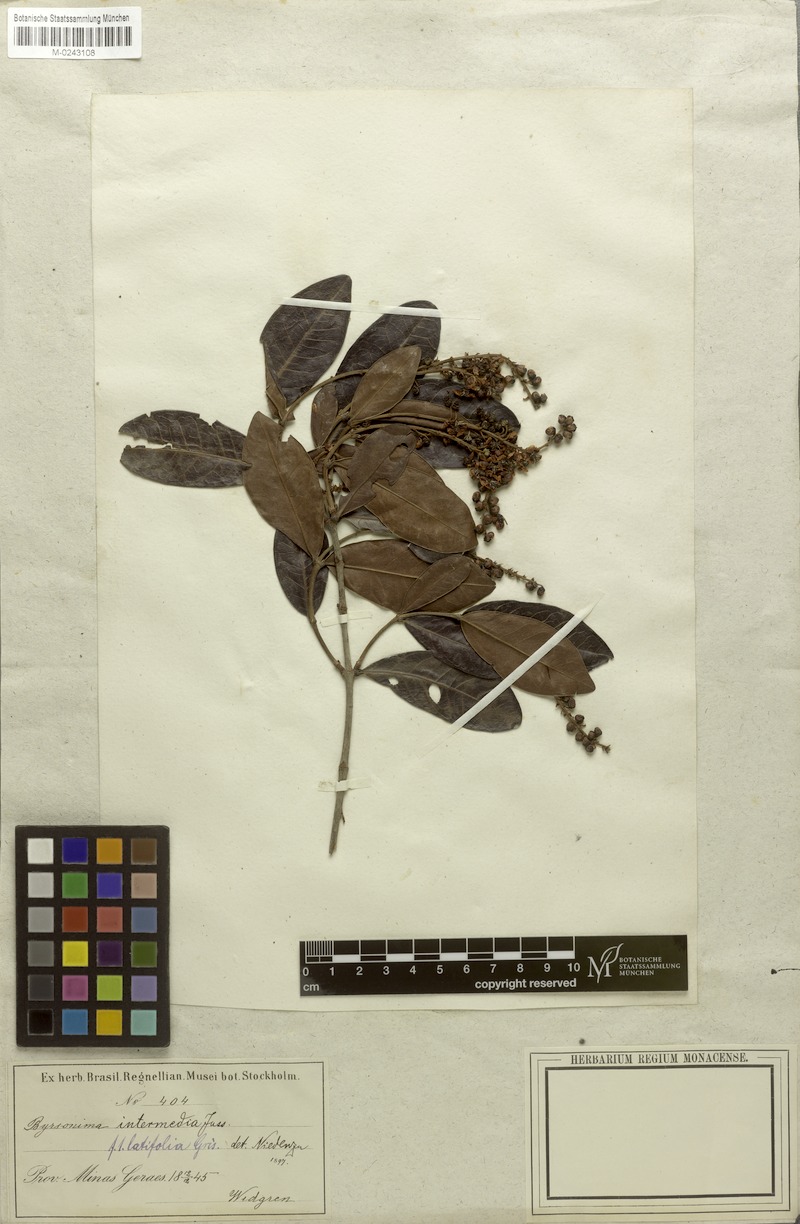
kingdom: Plantae
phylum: Tracheophyta
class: Magnoliopsida
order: Malpighiales
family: Malpighiaceae
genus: Byrsonima
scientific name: Byrsonima intermedia
